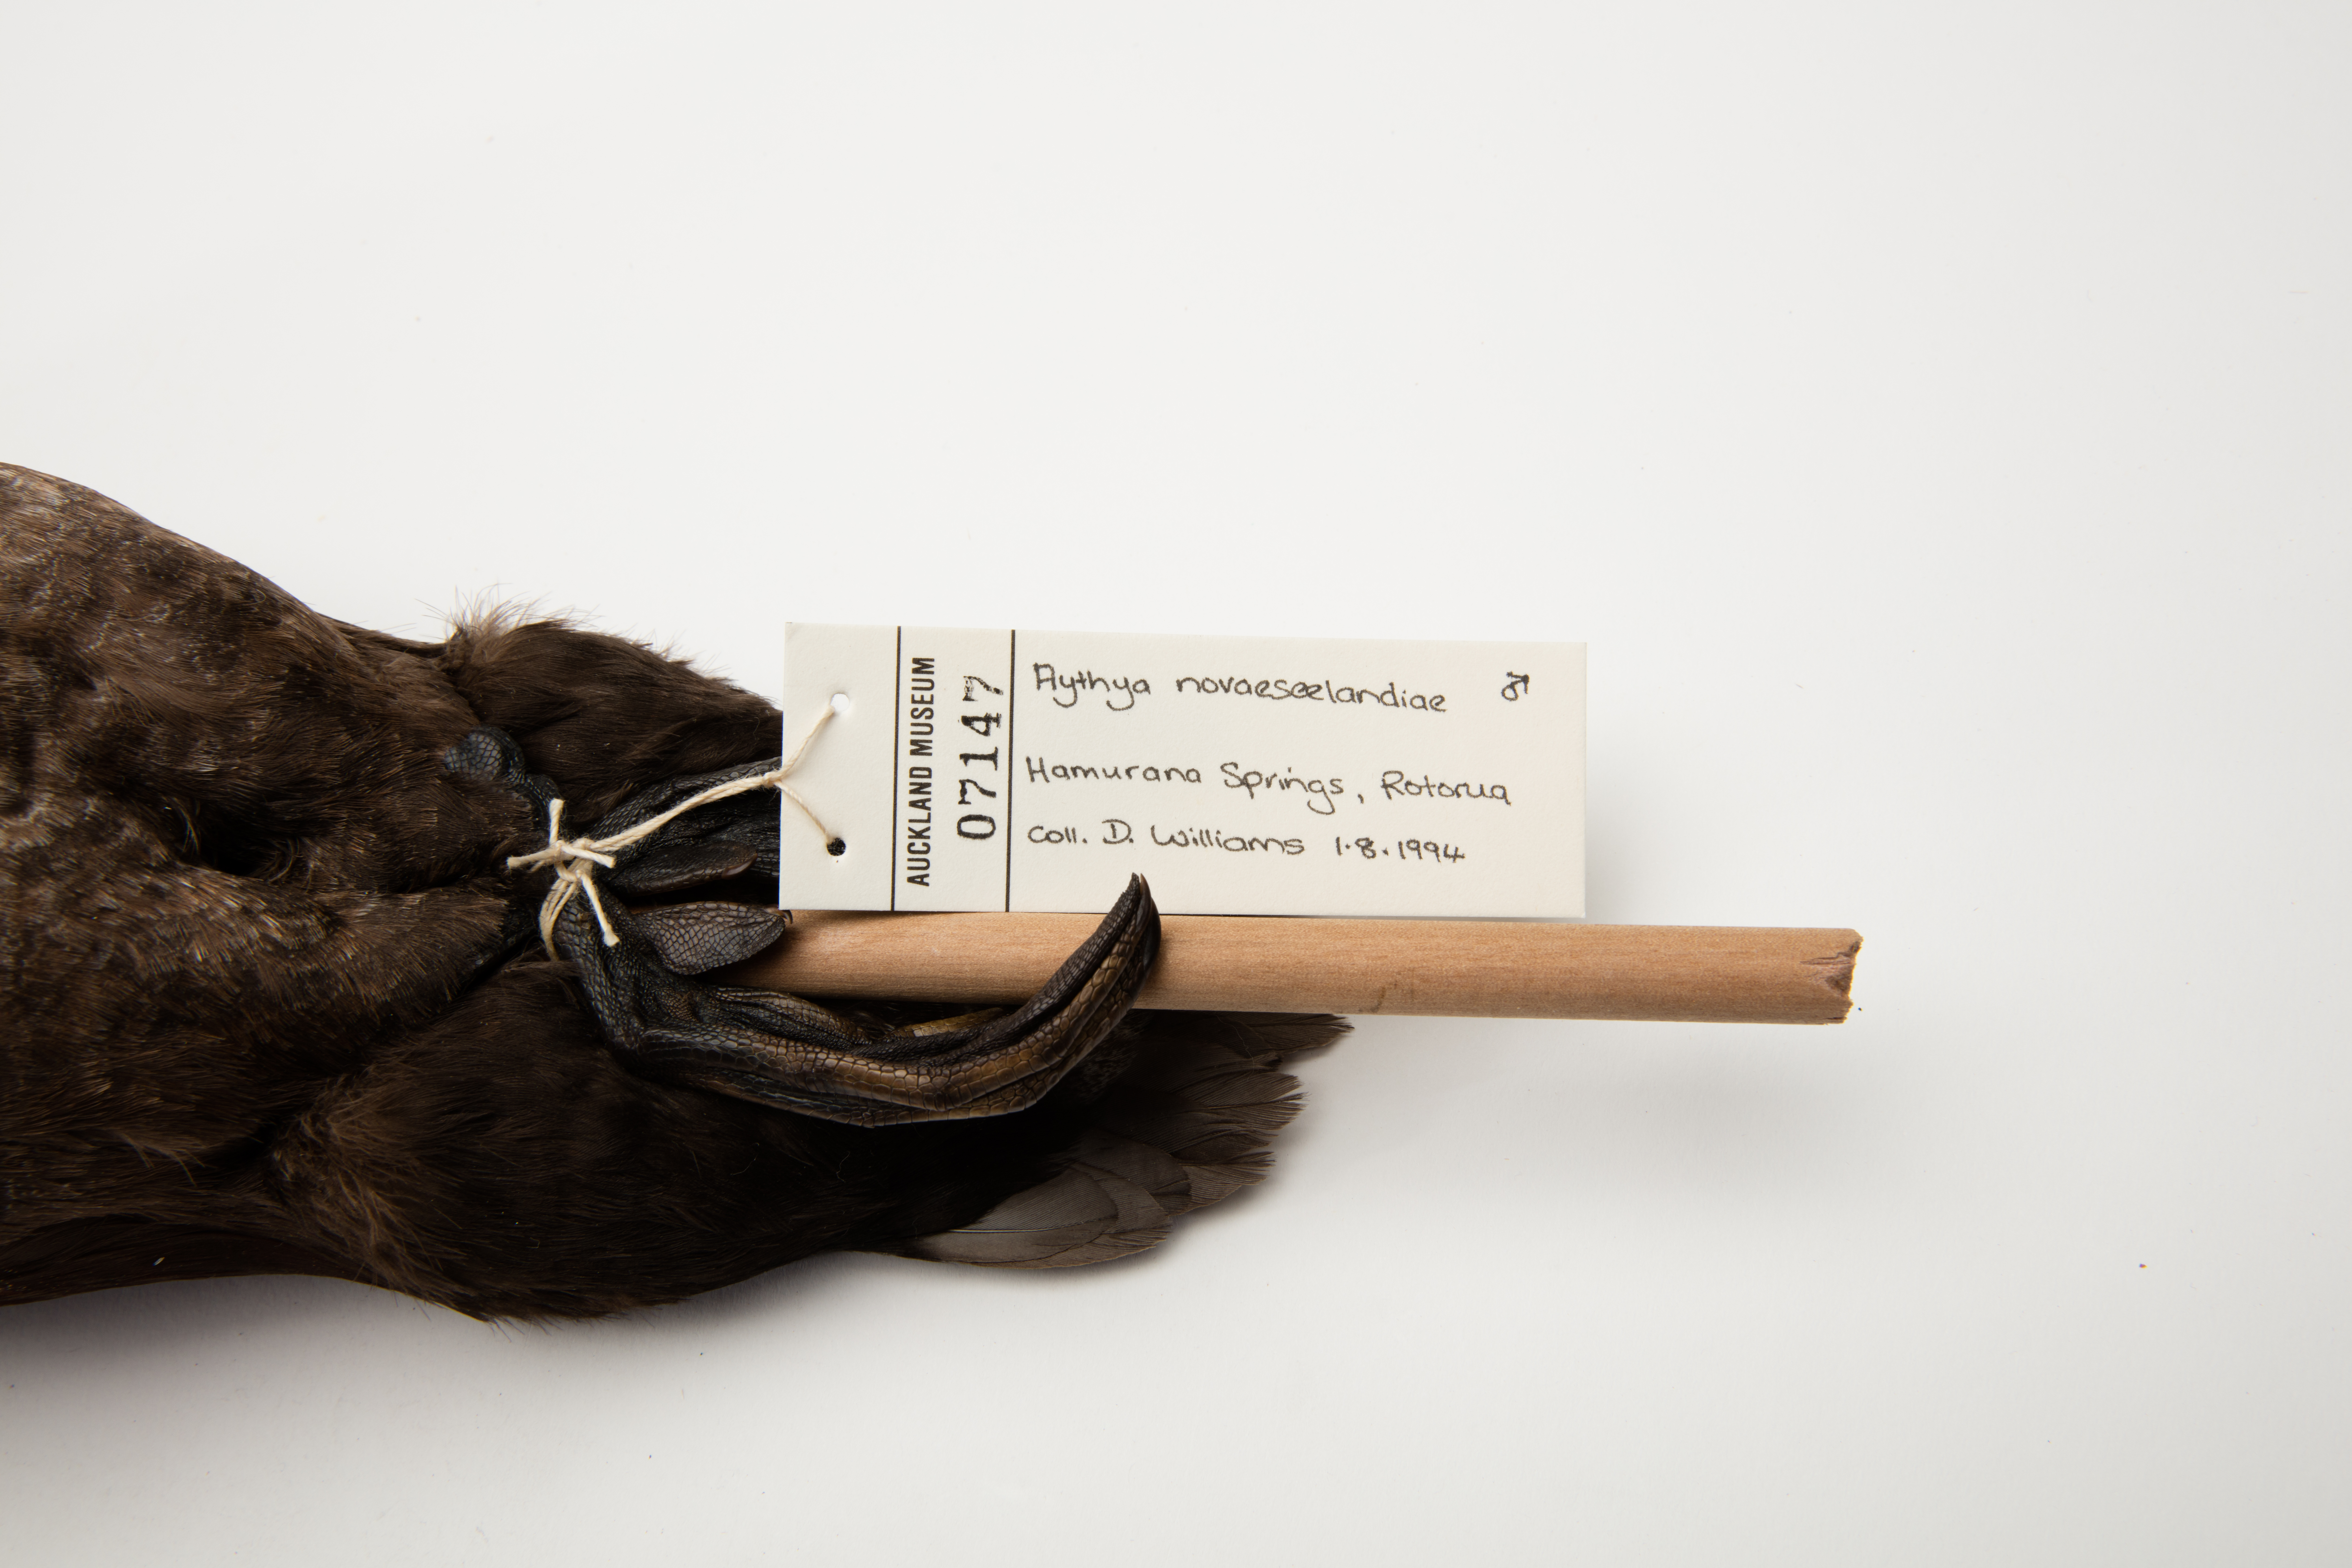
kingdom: Animalia
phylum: Chordata
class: Aves
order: Anseriformes
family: Anatidae
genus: Aythya
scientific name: Aythya novaeseelandiae
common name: New zealand scaup
